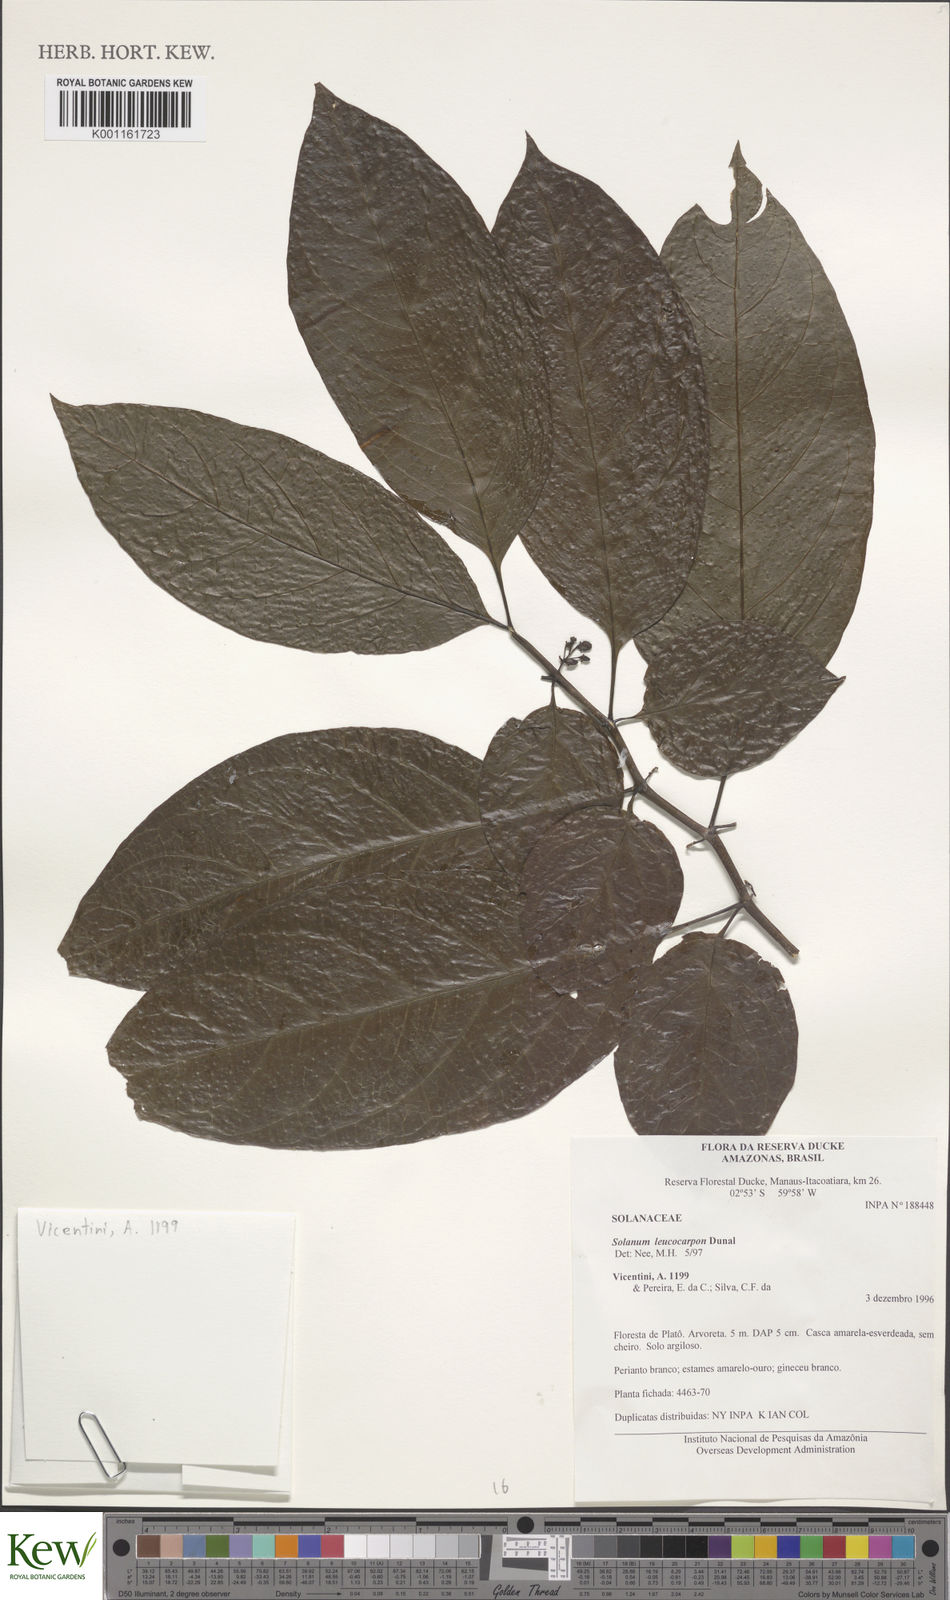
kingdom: Plantae
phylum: Tracheophyta
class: Magnoliopsida
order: Solanales
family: Solanaceae
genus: Solanum
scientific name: Solanum leucocarpon
